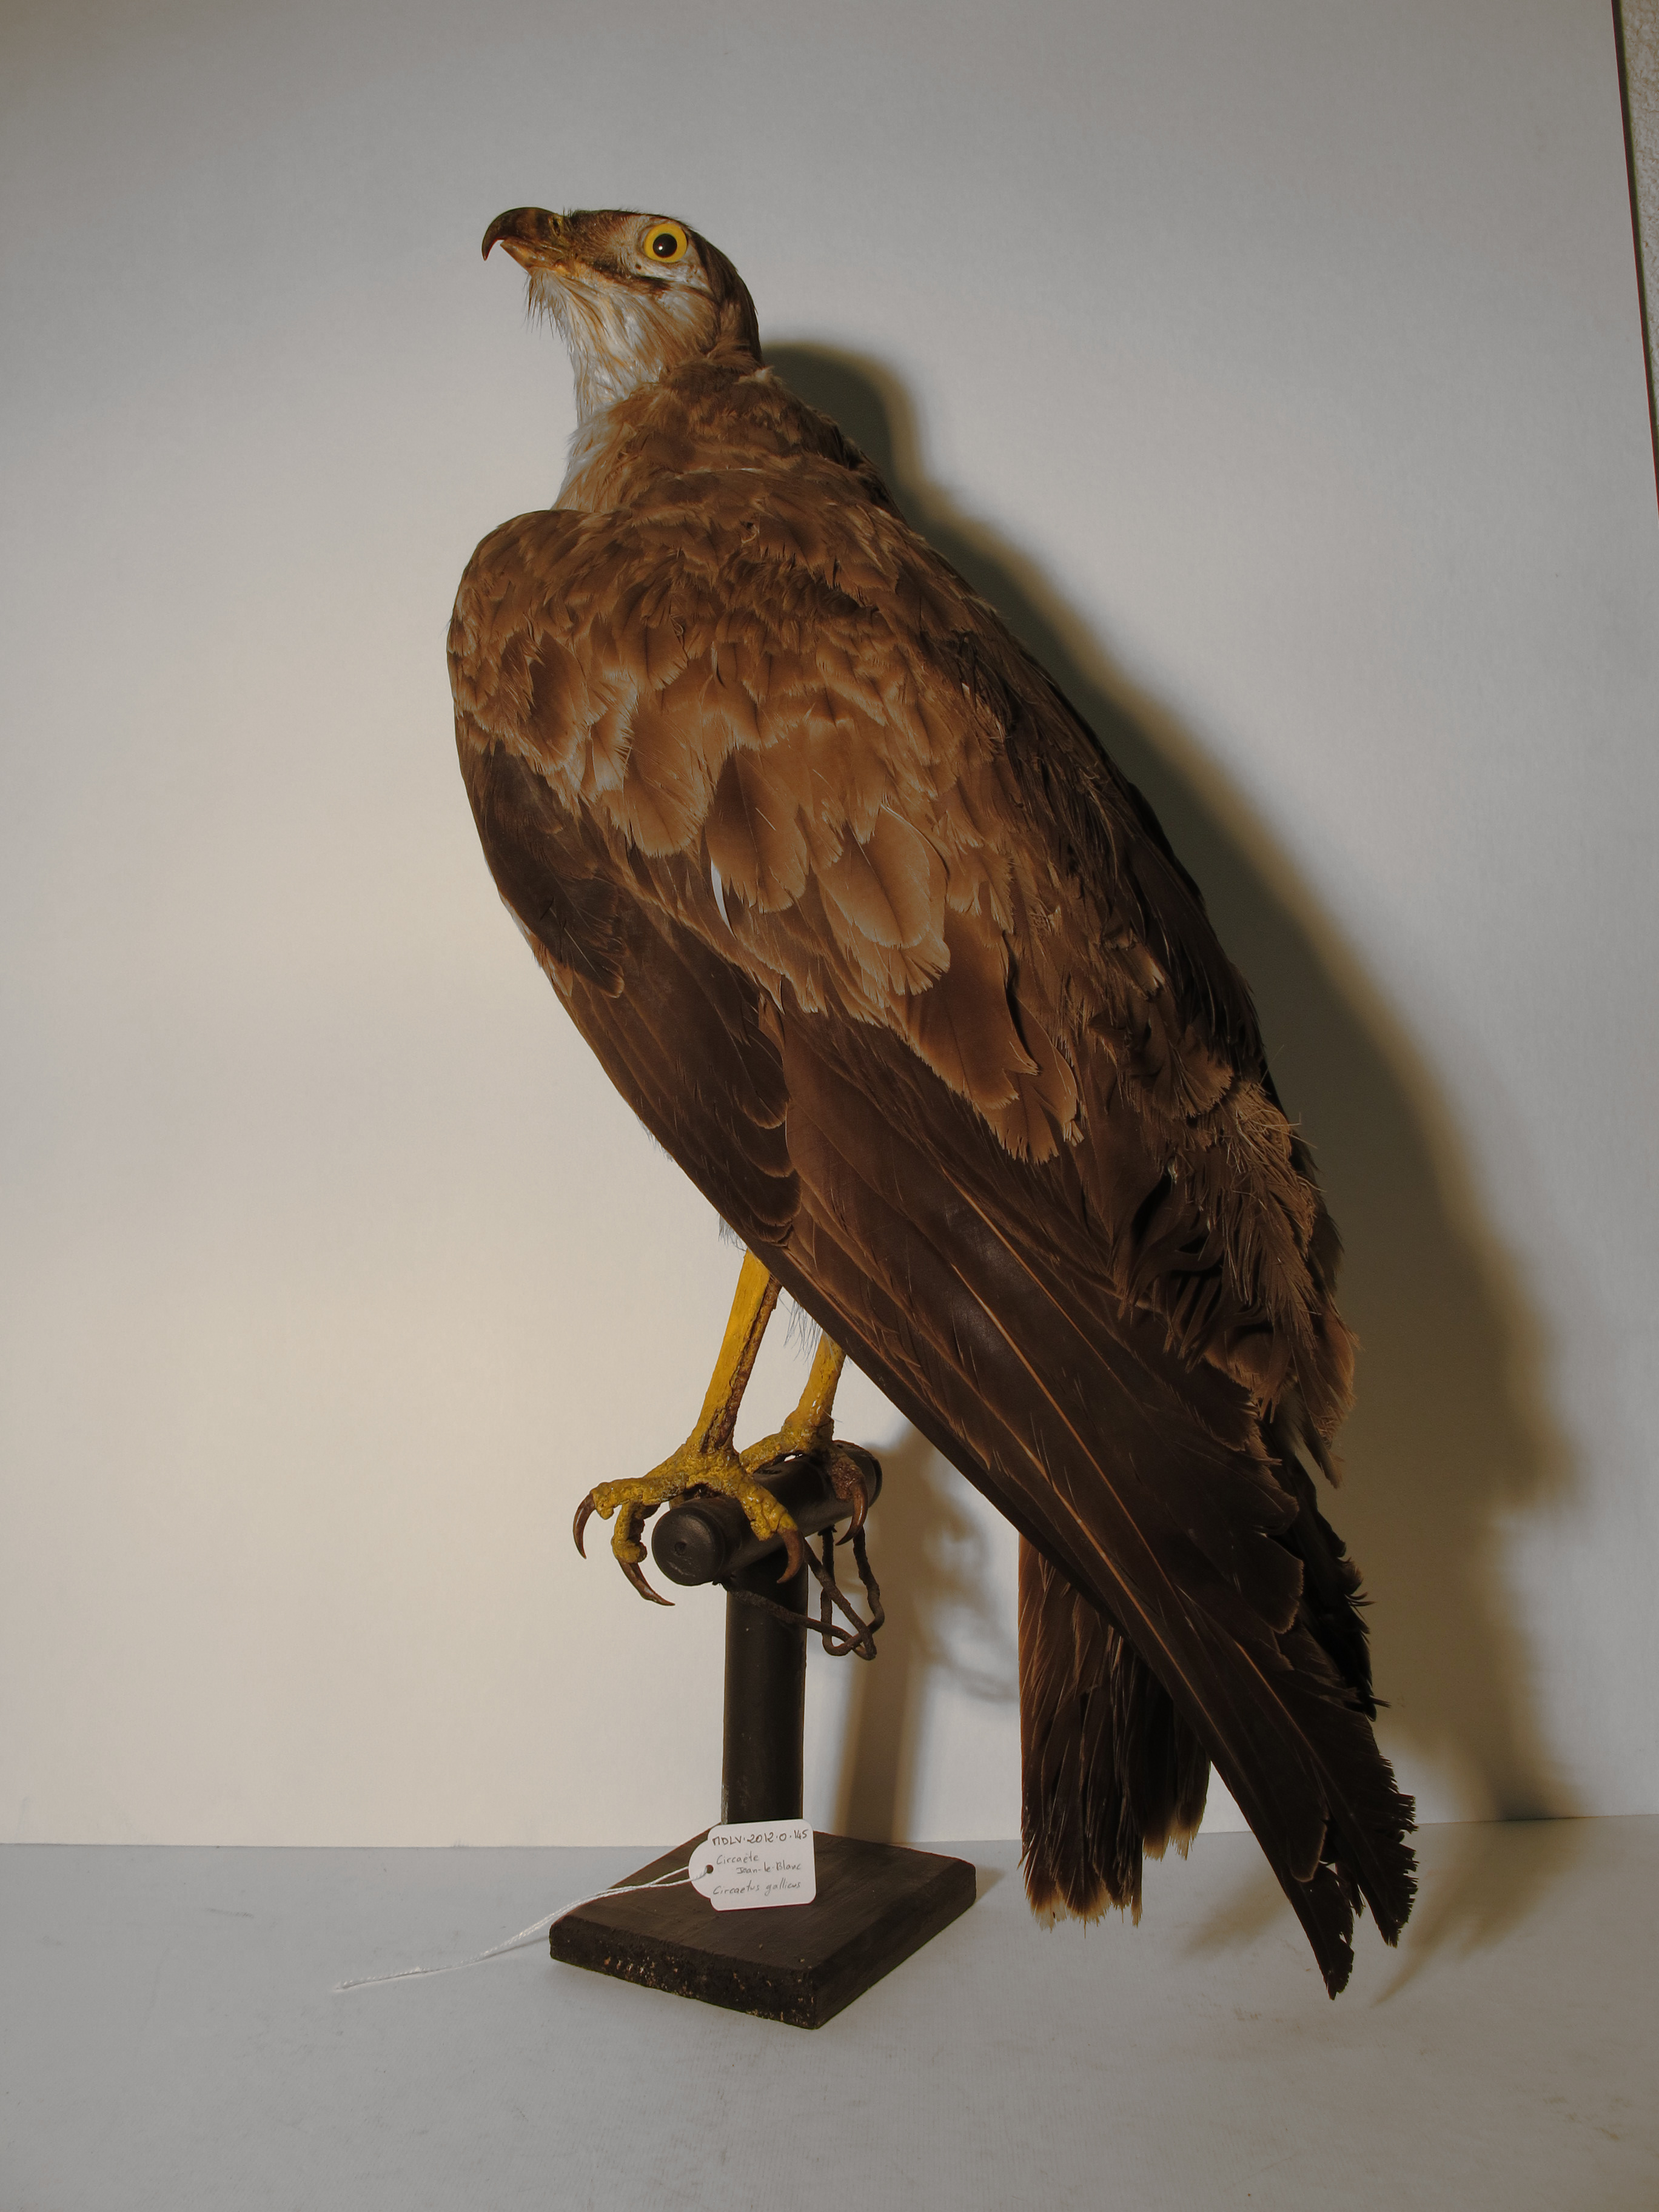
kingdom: Animalia
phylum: Chordata
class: Aves
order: Accipitriformes
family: Accipitridae
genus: Circaetus
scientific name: Circaetus gallicus
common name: Short-toed Snake-eagle
